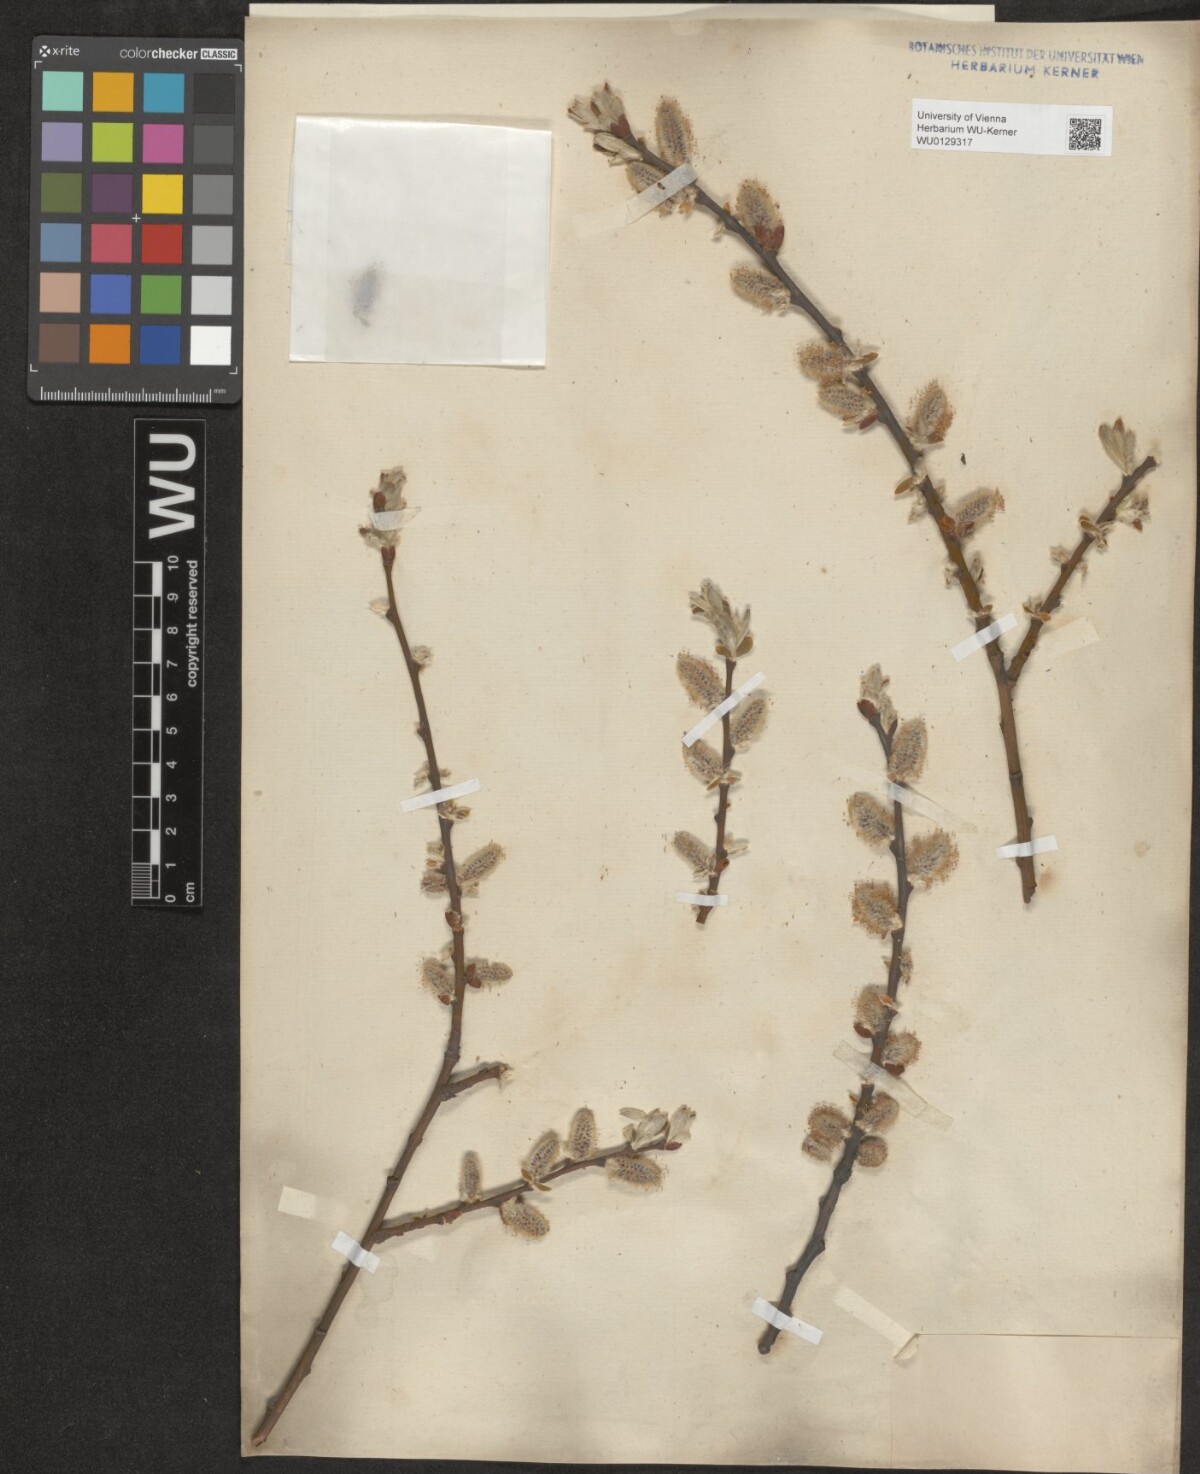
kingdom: Plantae
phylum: Tracheophyta
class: Magnoliopsida
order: Malpighiales
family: Salicaceae
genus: Salix
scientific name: Salix appendiculata
